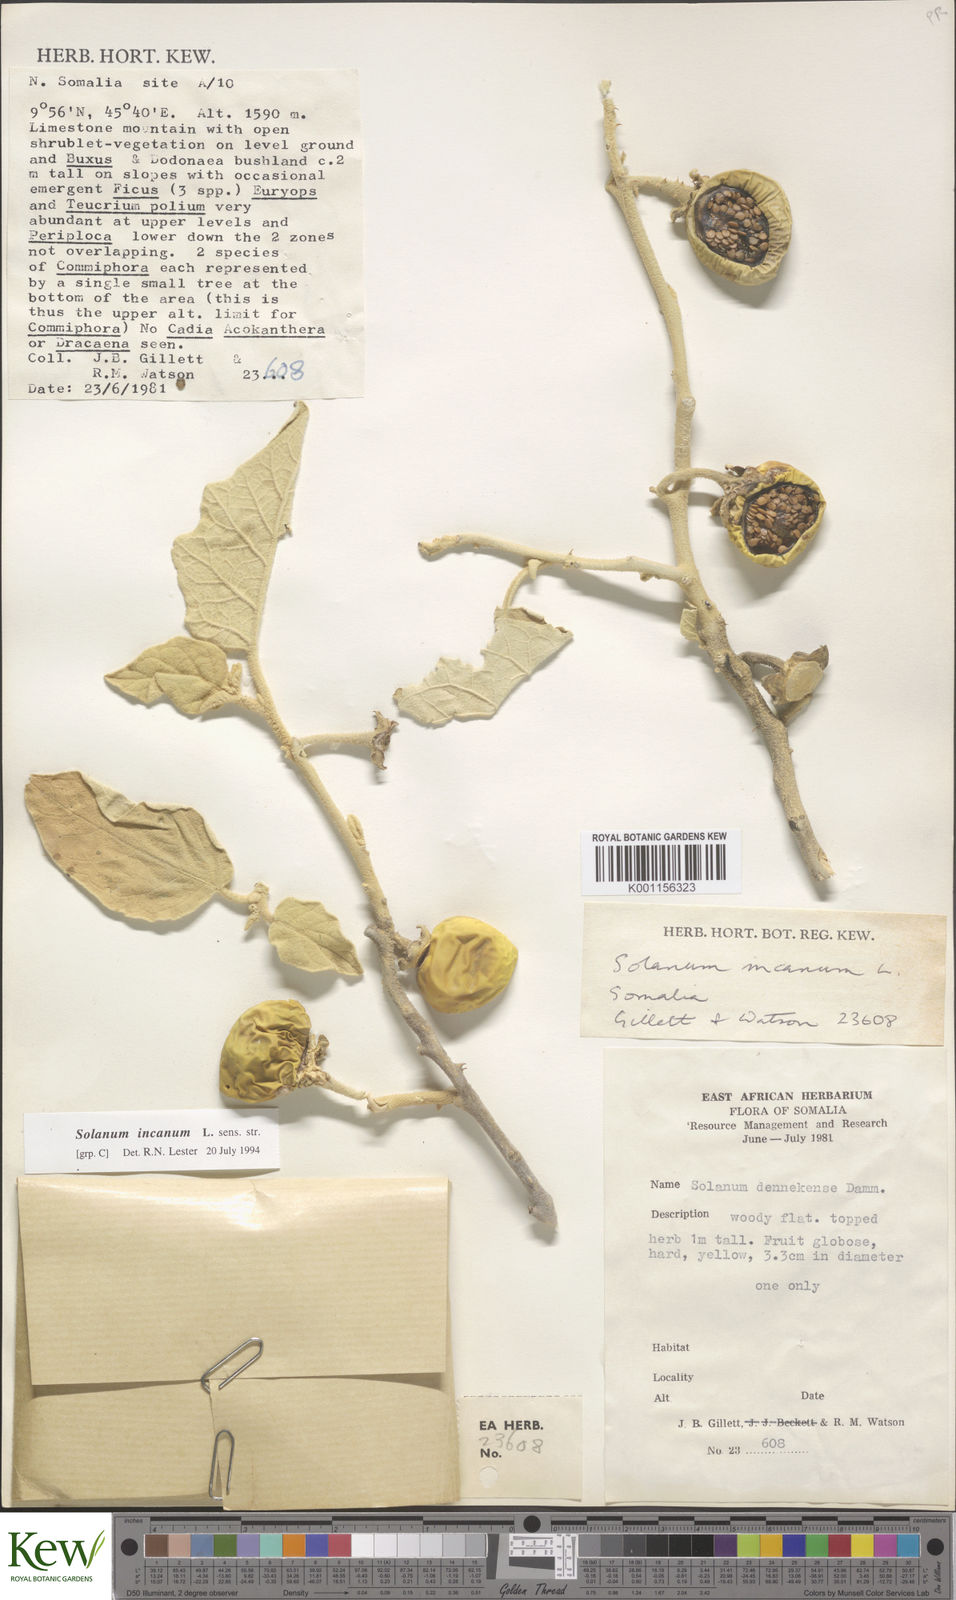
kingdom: Plantae
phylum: Tracheophyta
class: Magnoliopsida
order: Solanales
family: Solanaceae
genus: Solanum
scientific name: Solanum incanum
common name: Bitter apple
